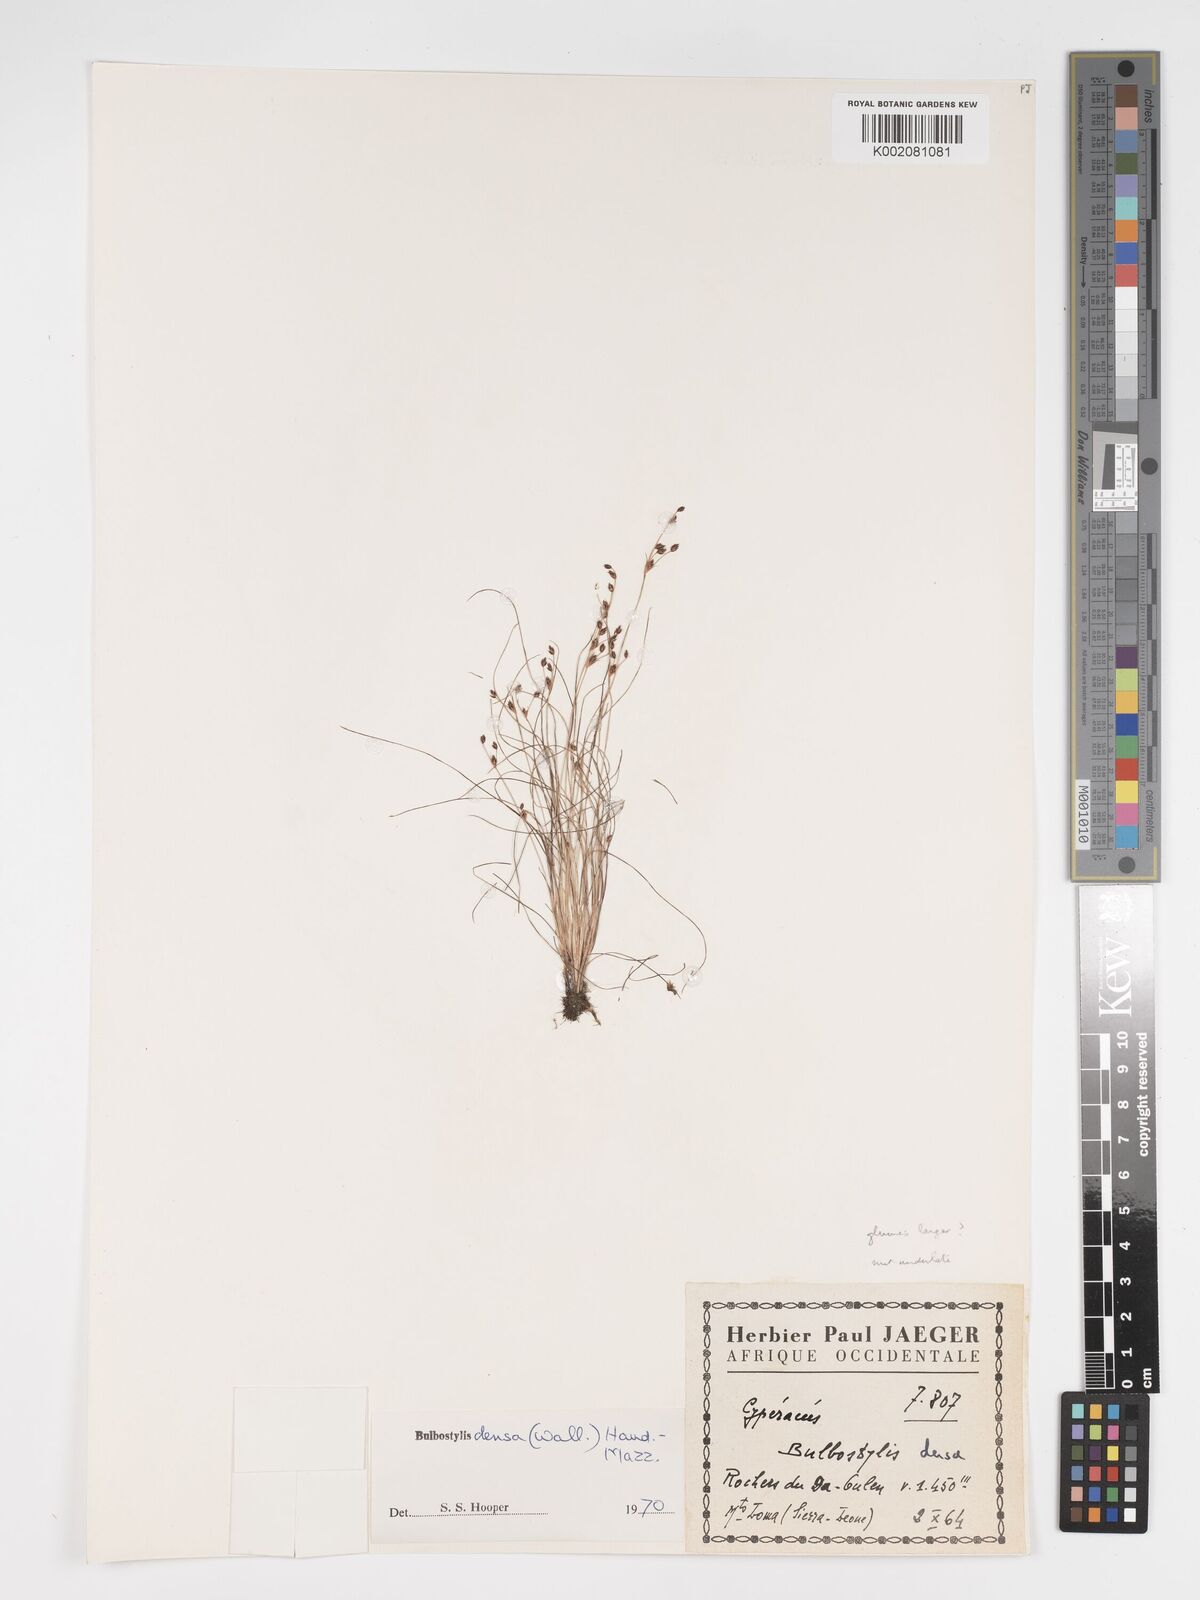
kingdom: Plantae
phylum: Tracheophyta
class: Liliopsida
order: Poales
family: Cyperaceae
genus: Bulbostylis
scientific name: Bulbostylis
